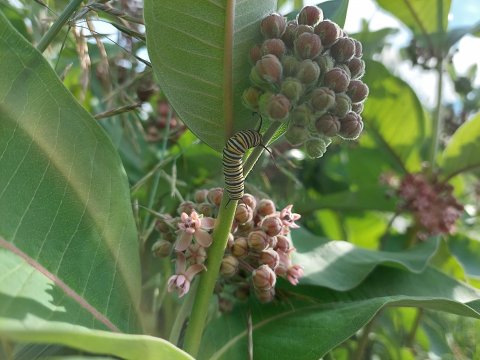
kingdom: Animalia
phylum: Arthropoda
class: Insecta
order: Lepidoptera
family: Nymphalidae
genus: Danaus
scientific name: Danaus plexippus
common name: Monarch
